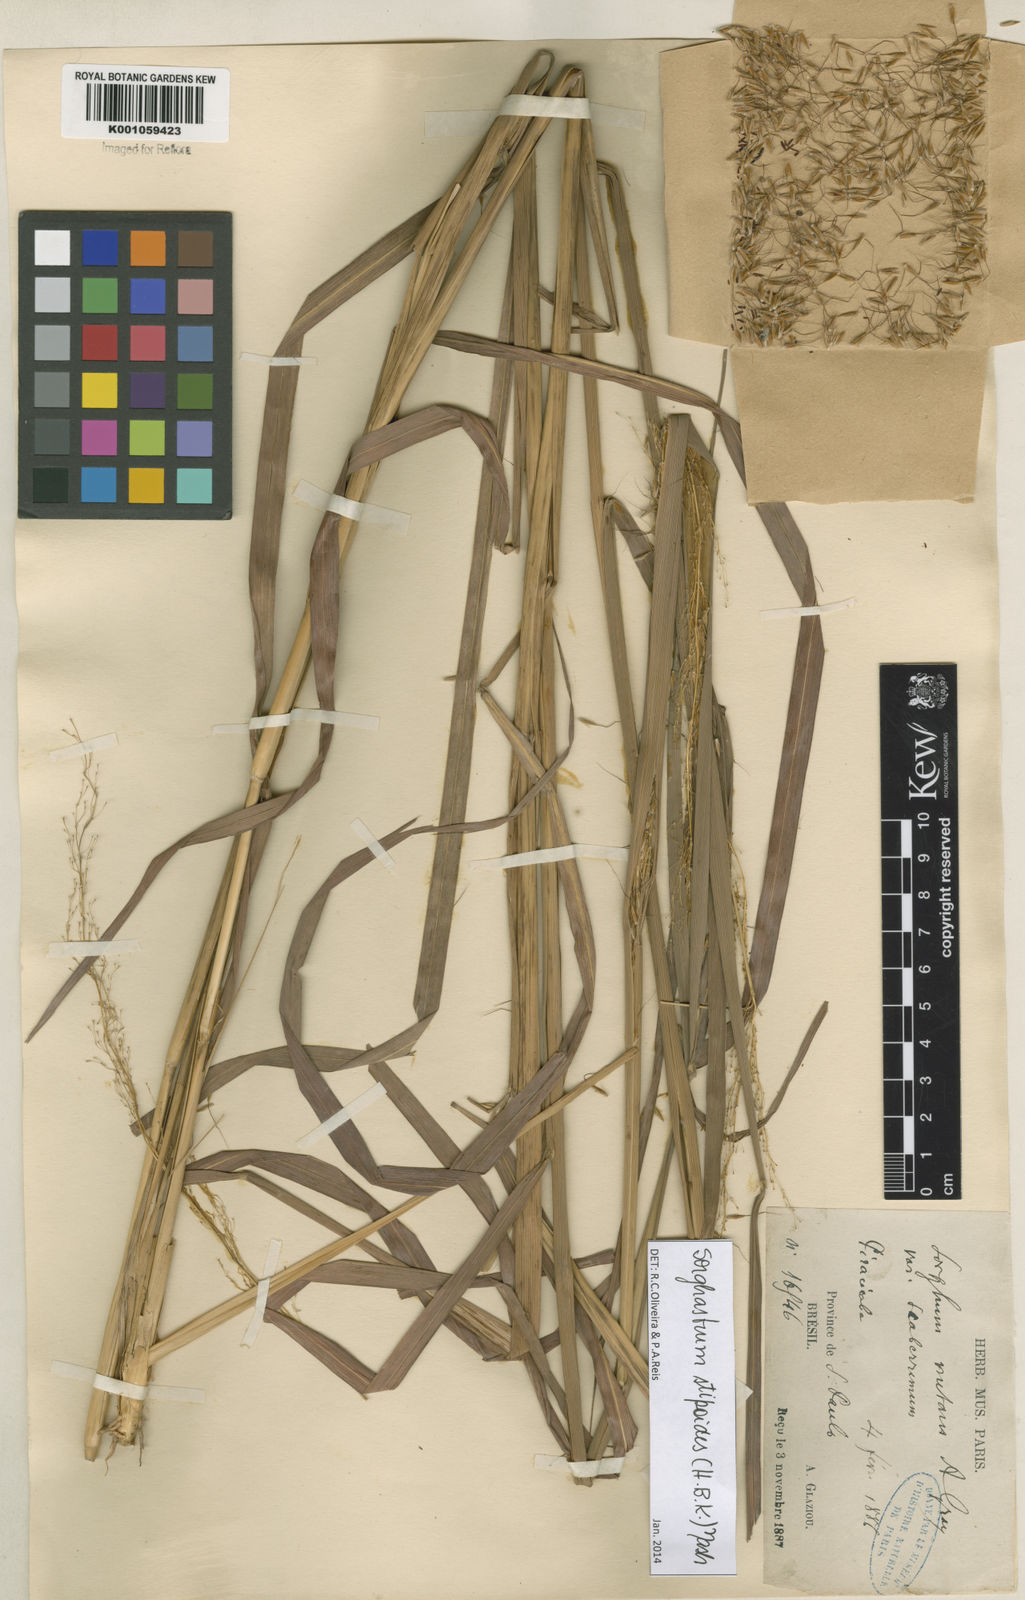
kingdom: Plantae
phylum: Tracheophyta
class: Liliopsida
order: Poales
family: Poaceae
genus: Sorghastrum
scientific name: Sorghastrum stipoides
